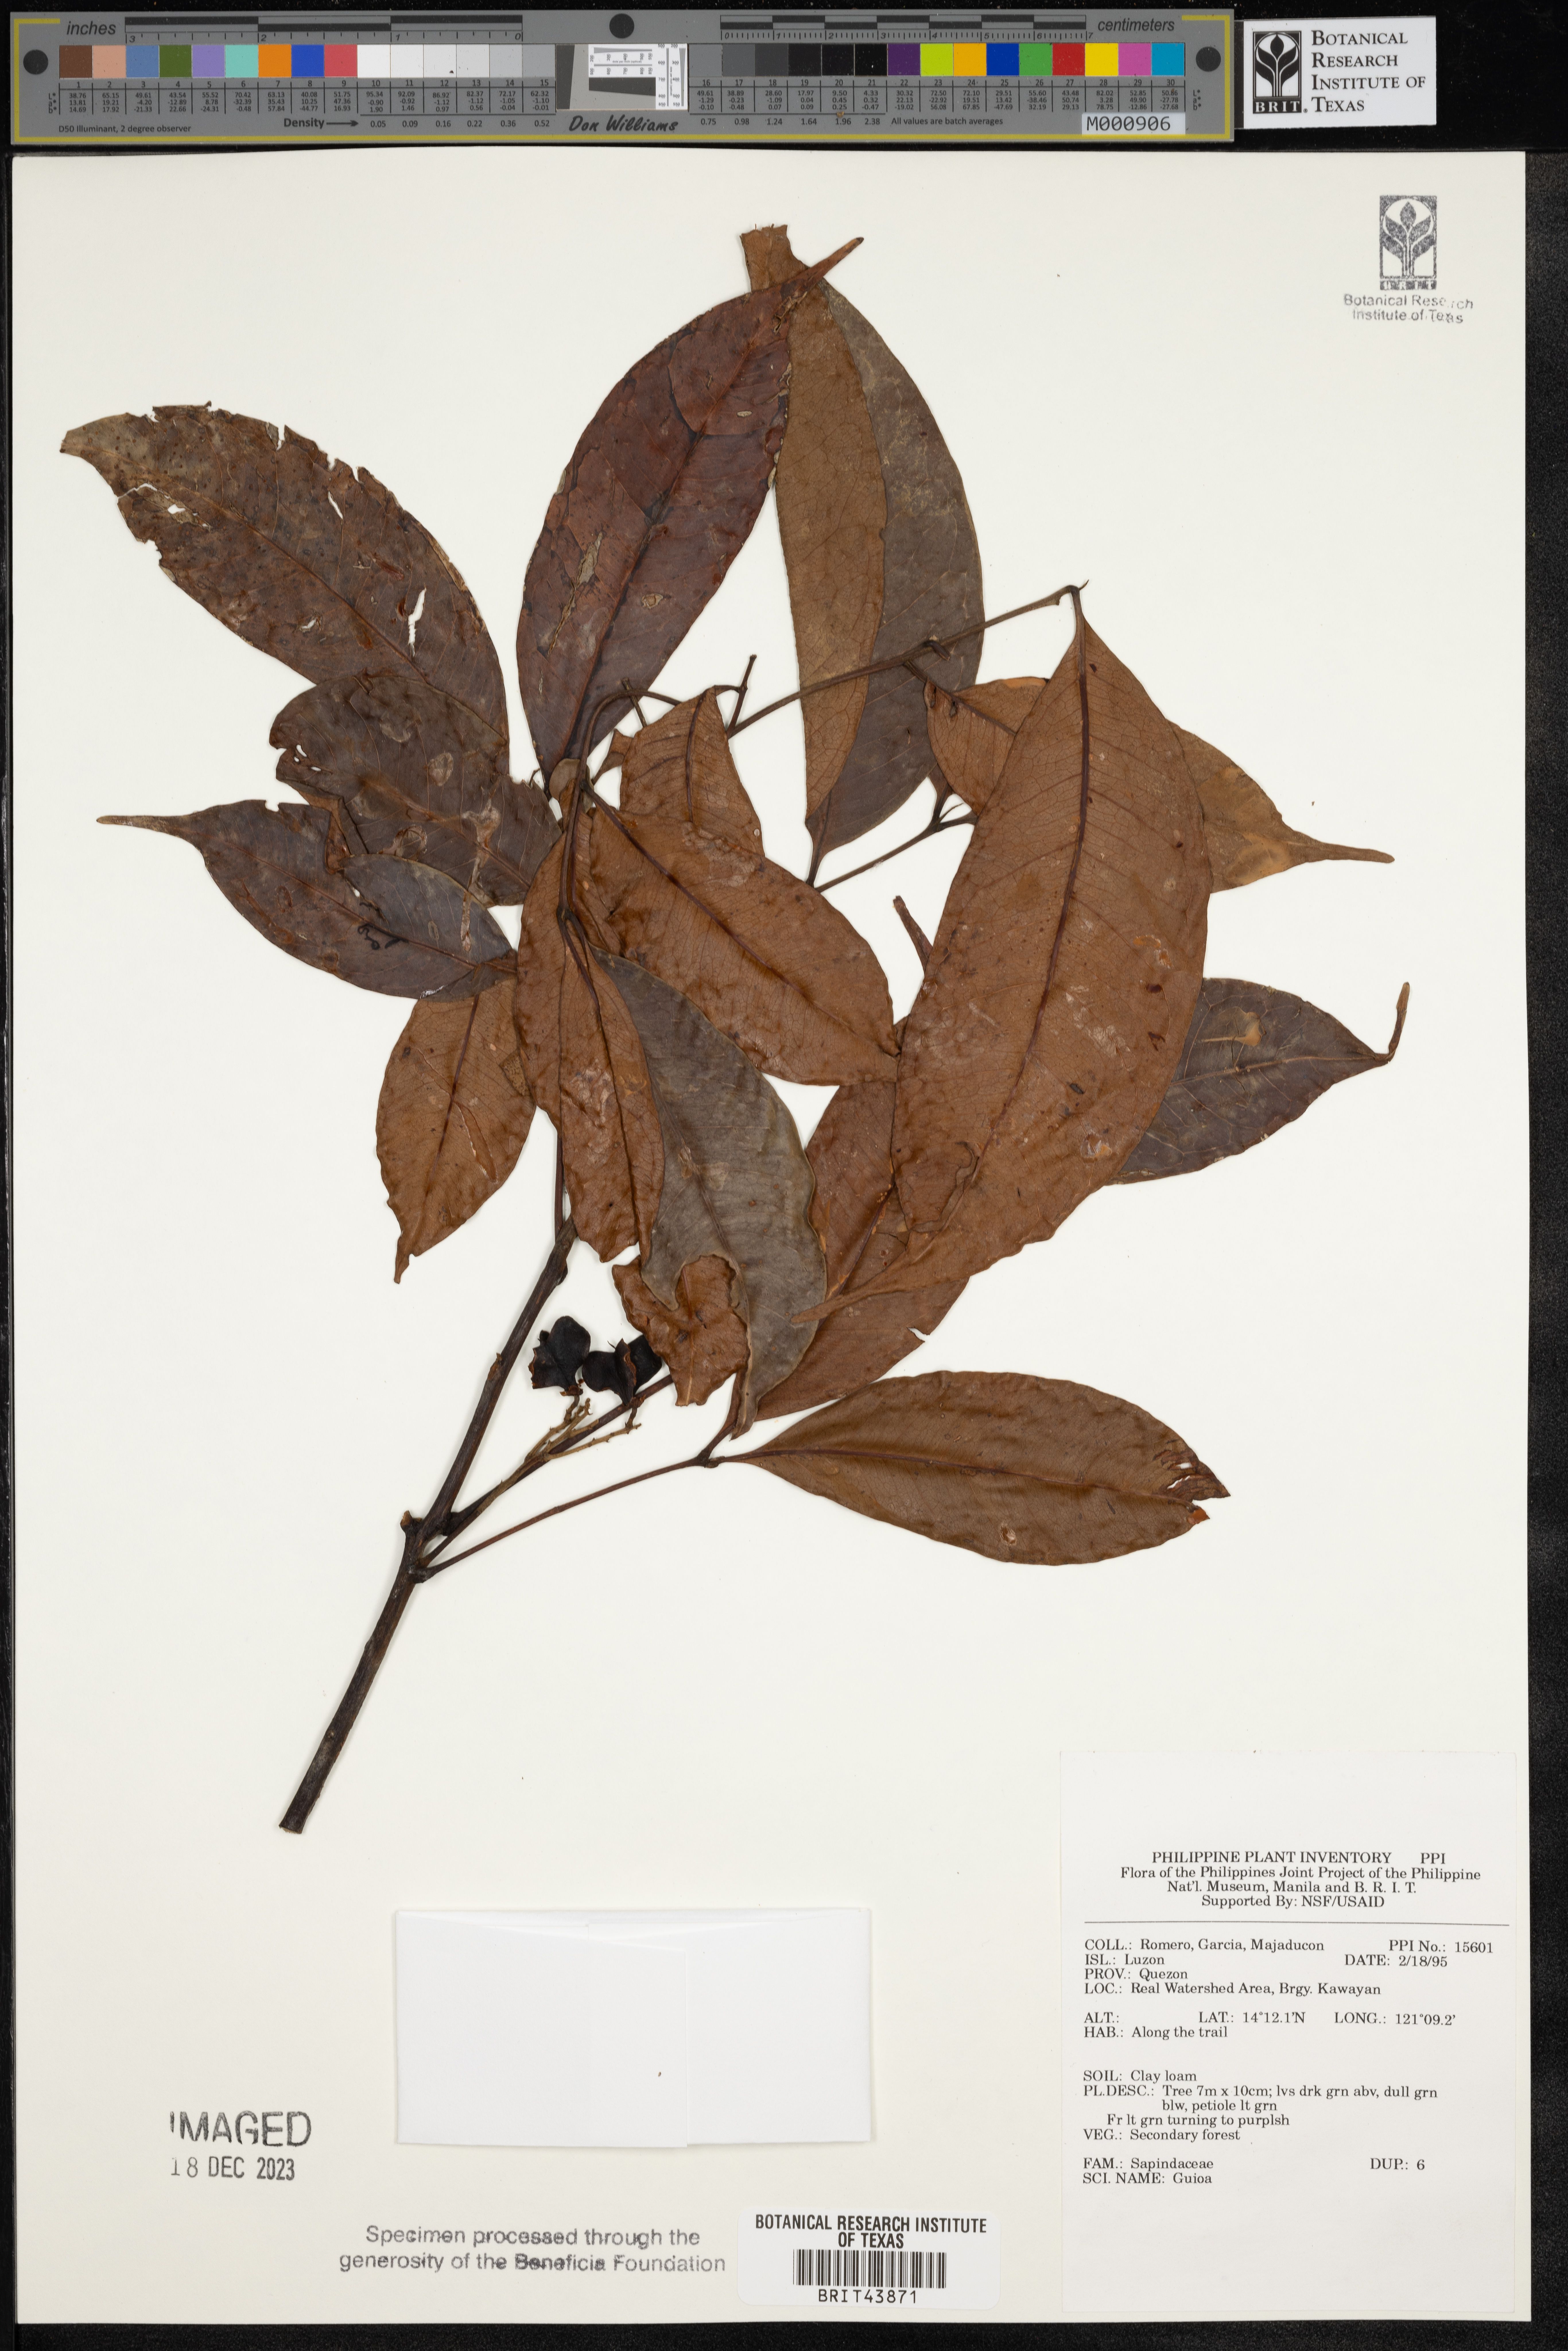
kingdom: Plantae
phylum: Tracheophyta
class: Magnoliopsida
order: Sapindales
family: Sapindaceae
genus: Guioa
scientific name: Guioa
